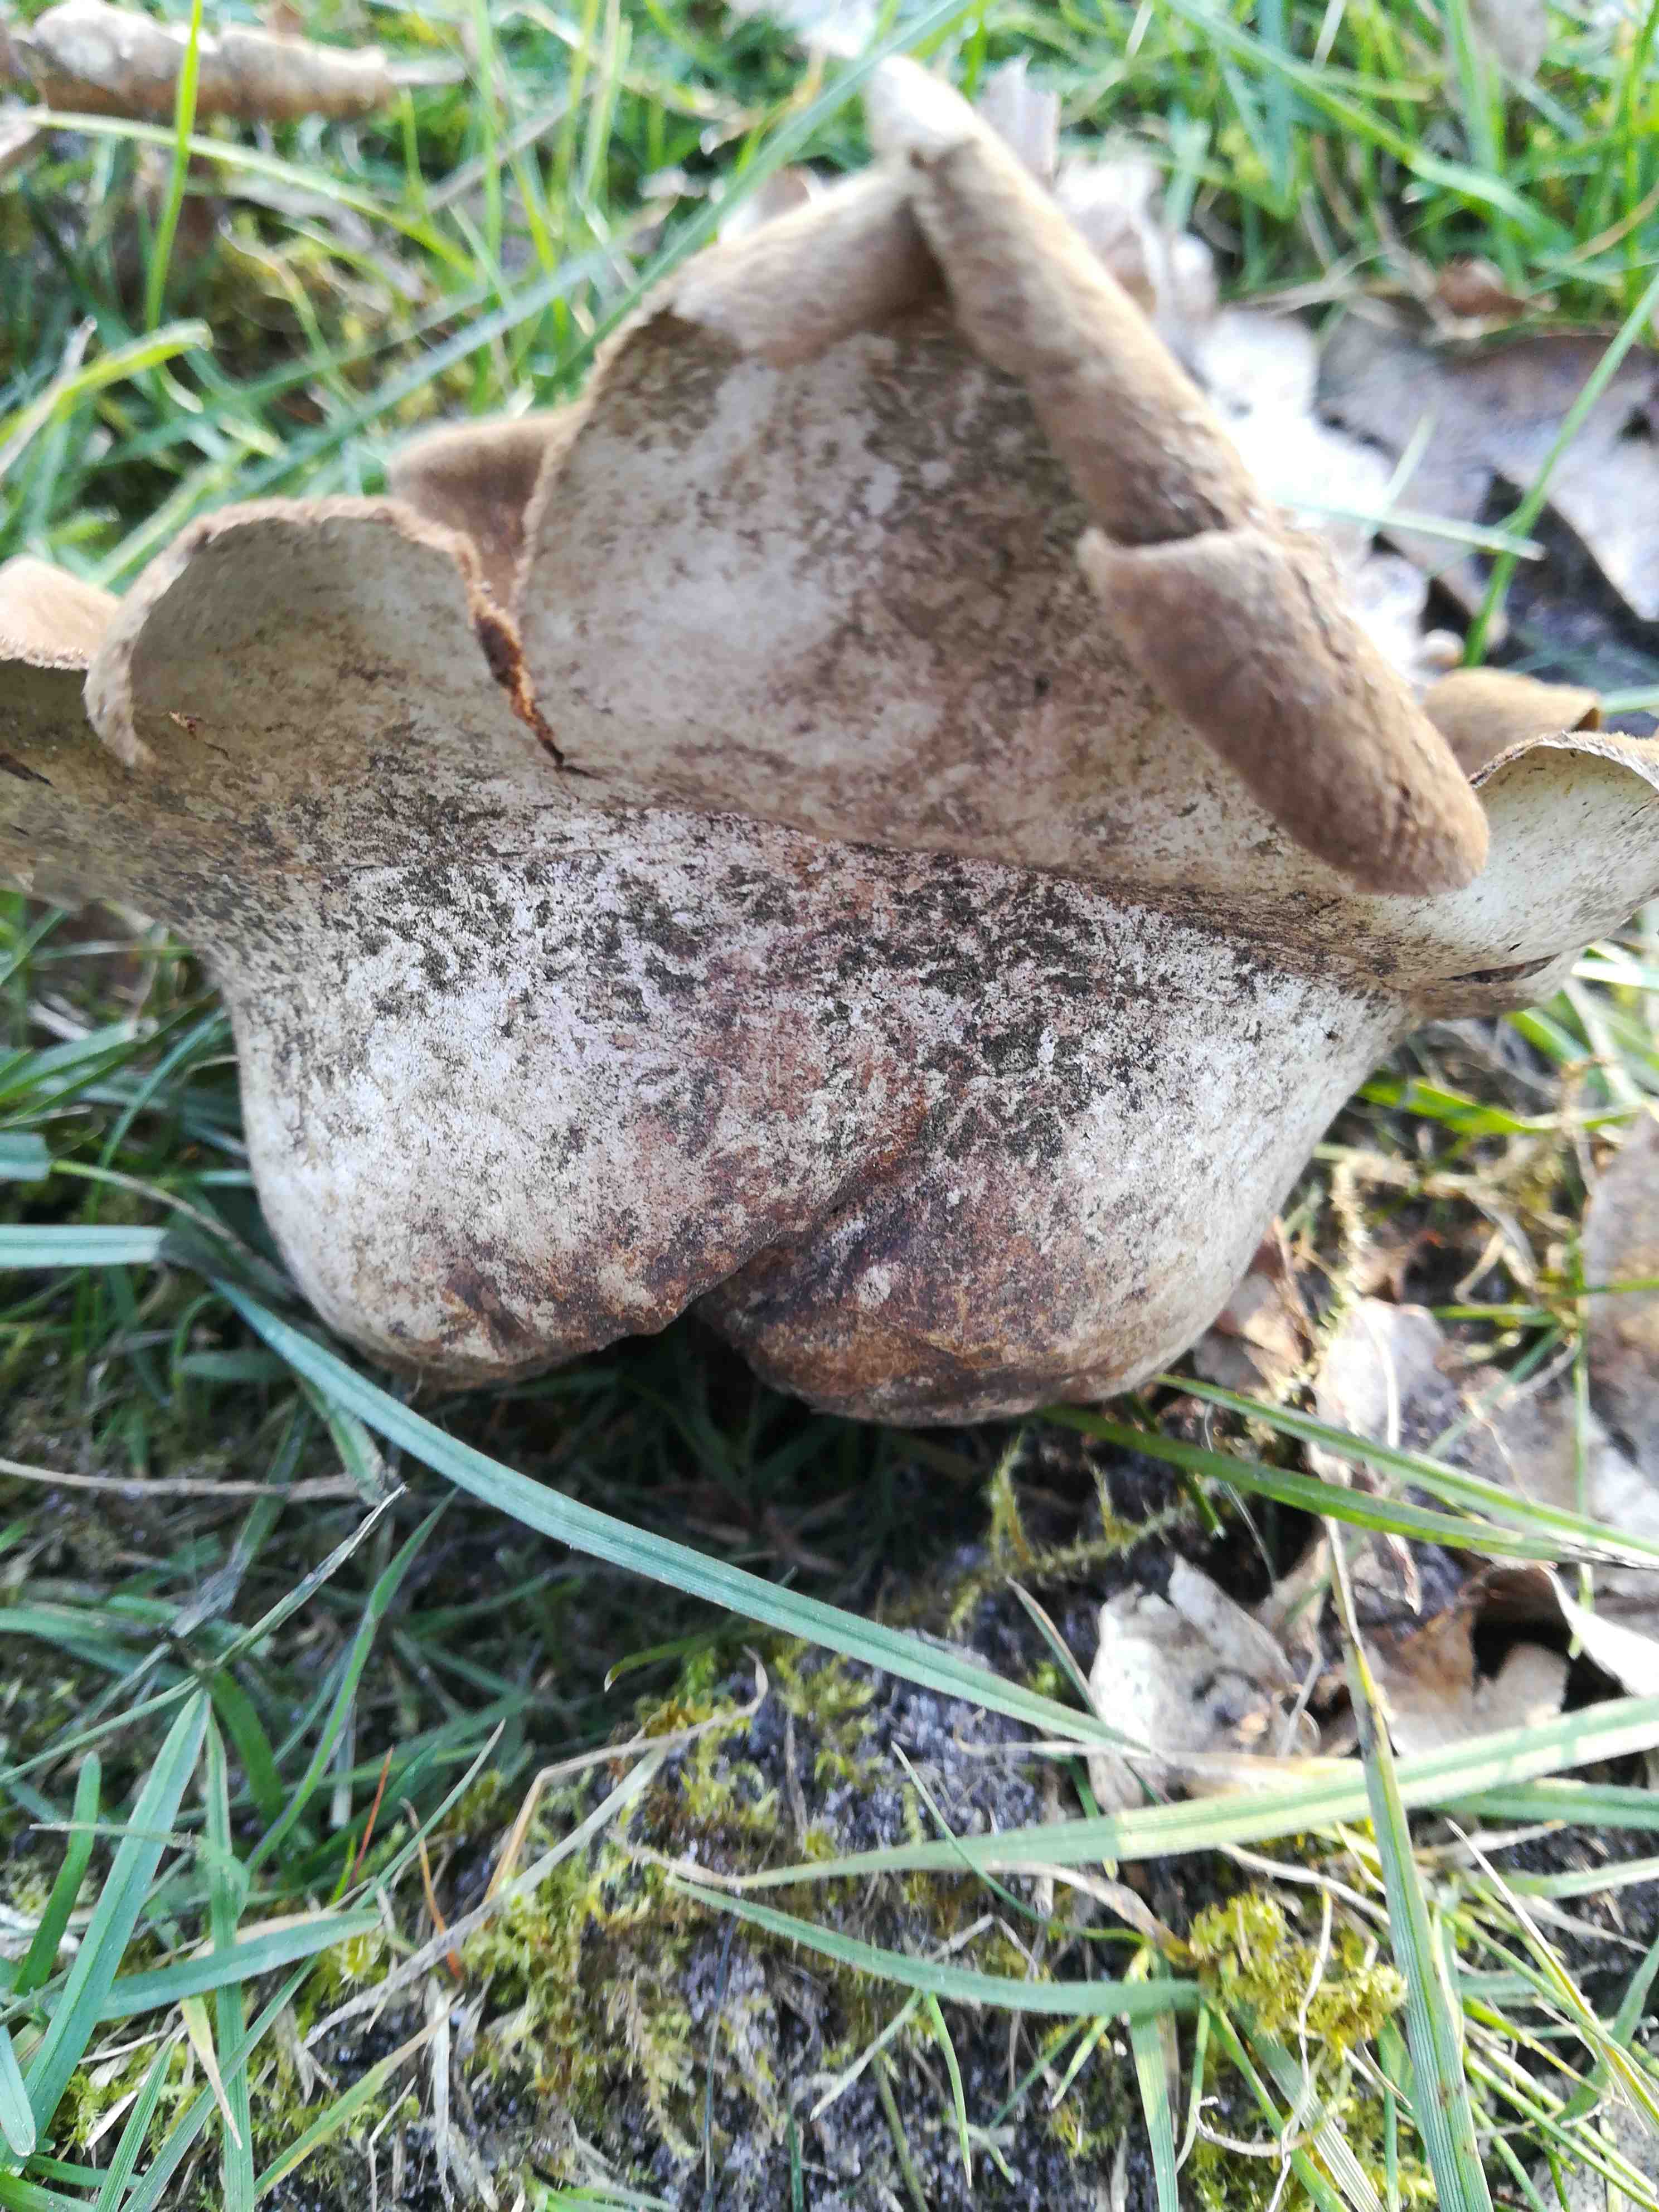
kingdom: Fungi
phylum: Basidiomycota
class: Agaricomycetes
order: Agaricales
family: Lycoperdaceae
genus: Bovistella
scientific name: Bovistella utriformis
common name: skællet støvbold
